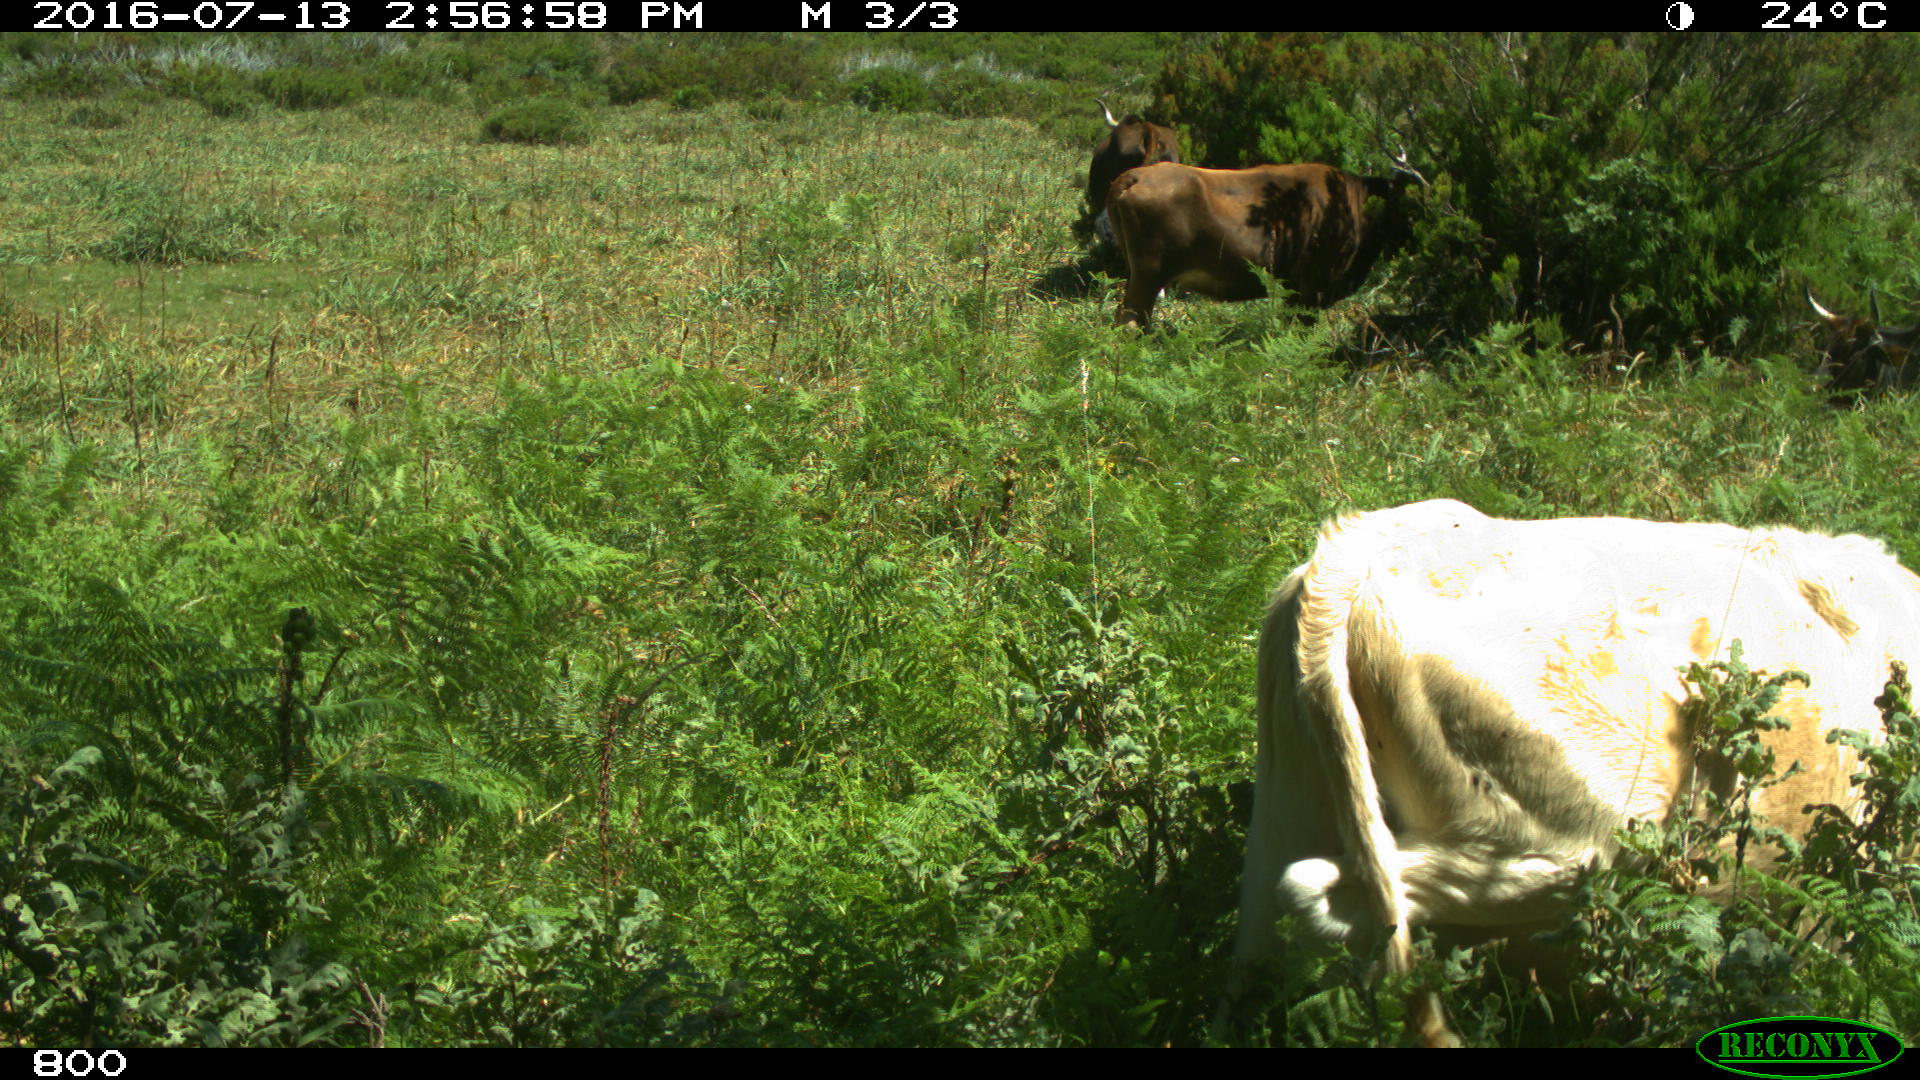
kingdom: Animalia
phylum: Chordata
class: Mammalia
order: Artiodactyla
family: Bovidae
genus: Bos
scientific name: Bos taurus
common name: Domesticated cattle
